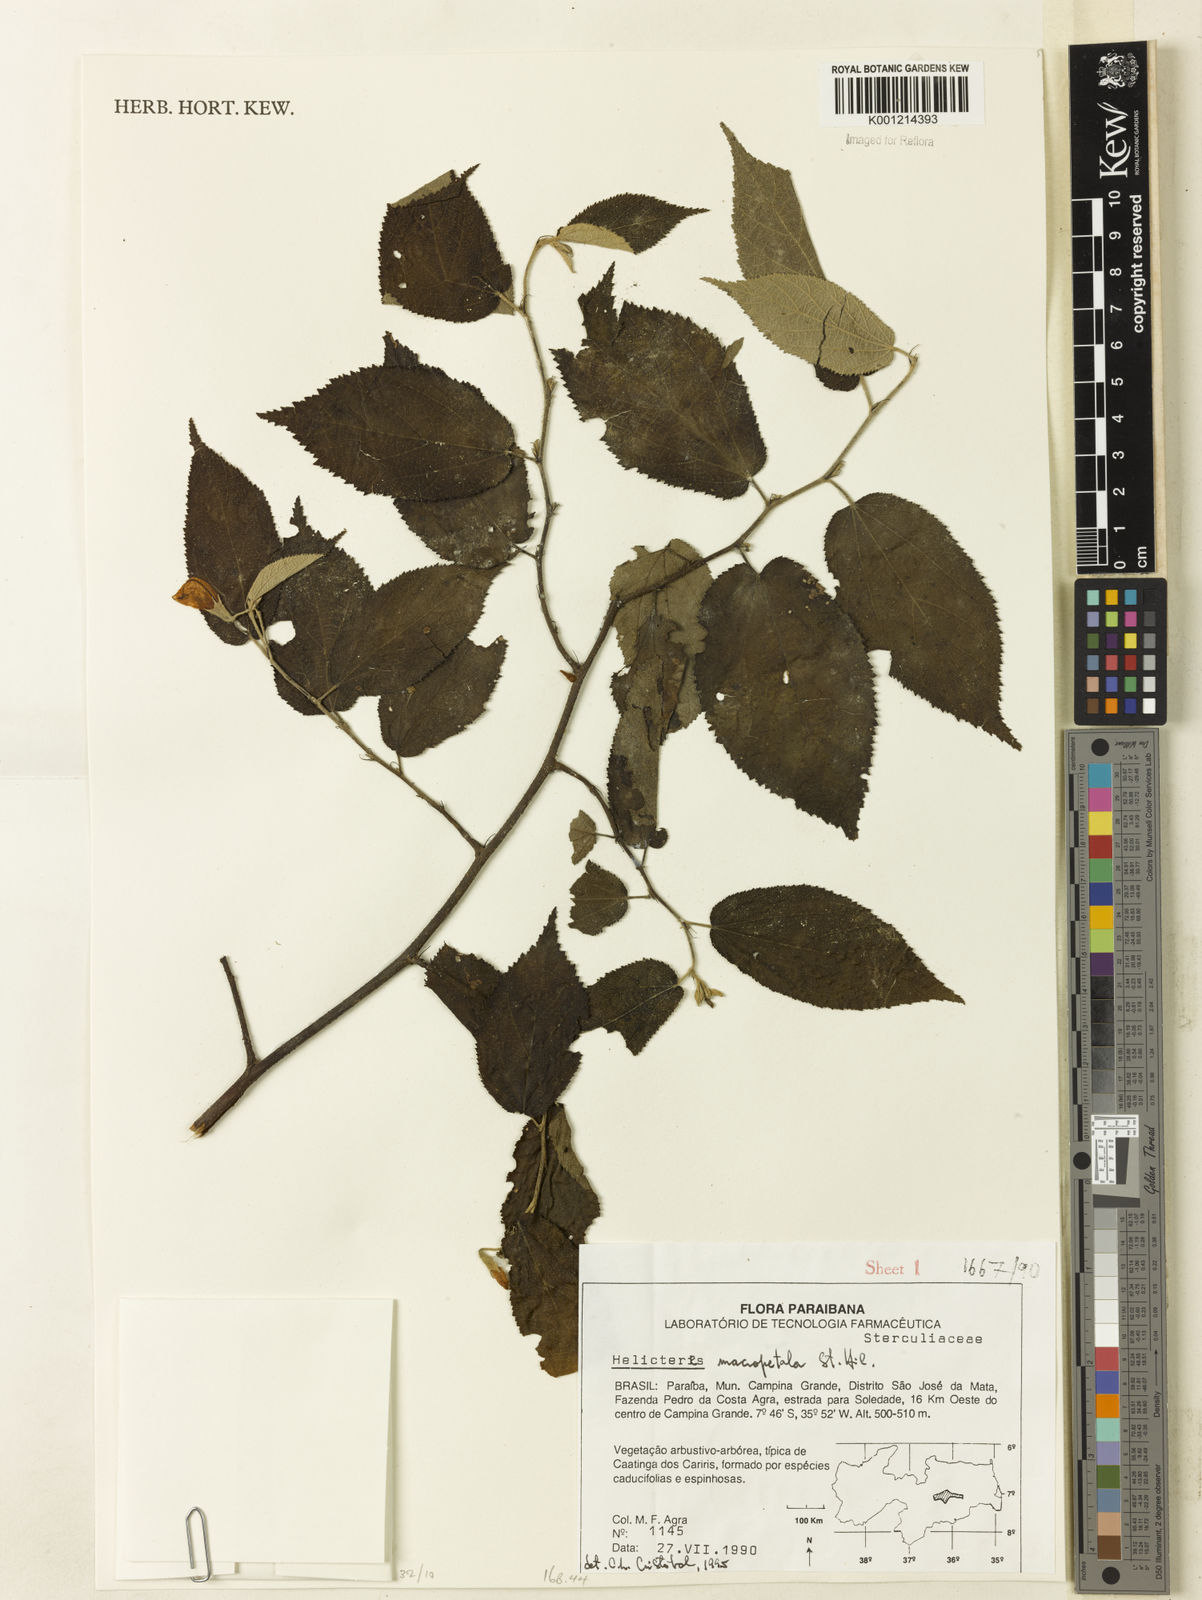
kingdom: Plantae
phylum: Tracheophyta
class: Magnoliopsida
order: Malvales
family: Malvaceae
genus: Helicteres
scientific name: Helicteres
